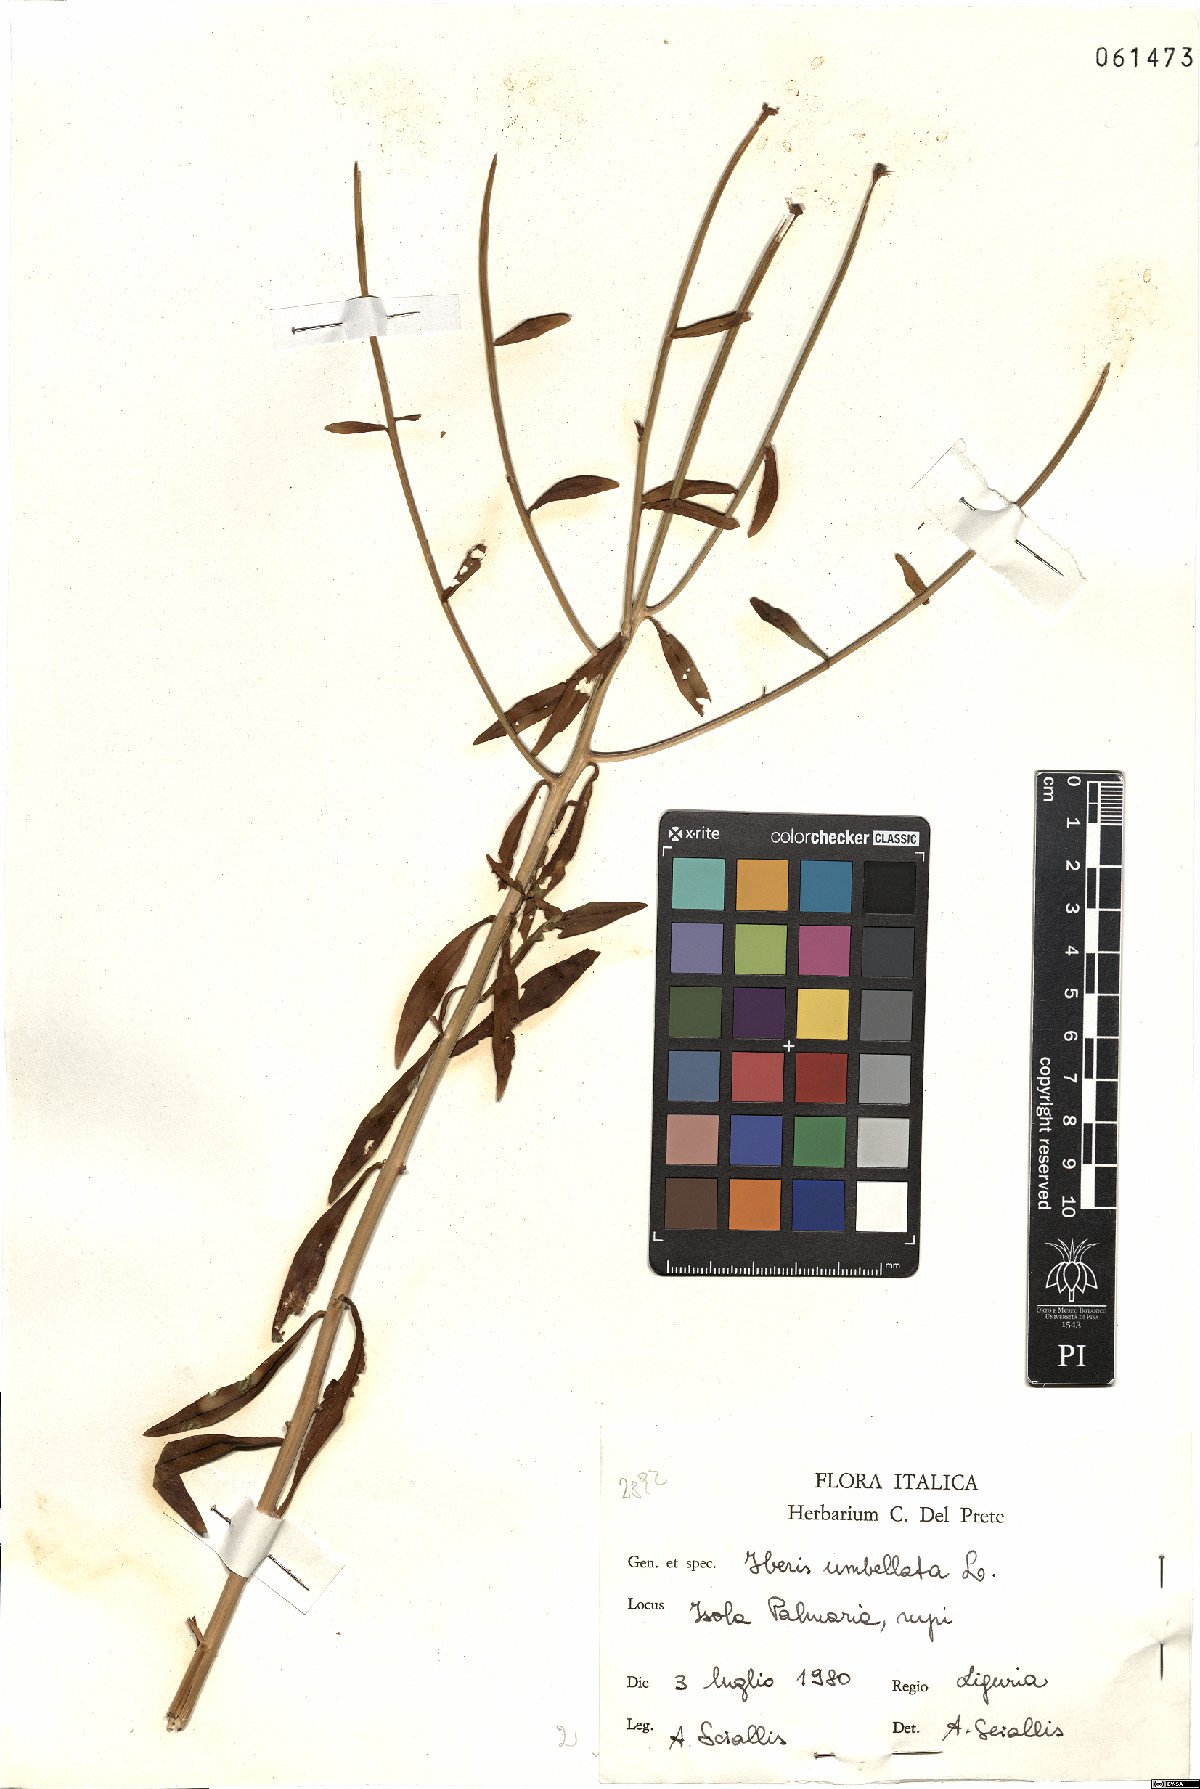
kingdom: Plantae
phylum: Tracheophyta
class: Magnoliopsida
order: Brassicales
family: Brassicaceae
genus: Iberis
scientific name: Iberis umbellata
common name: Globe candytuft
